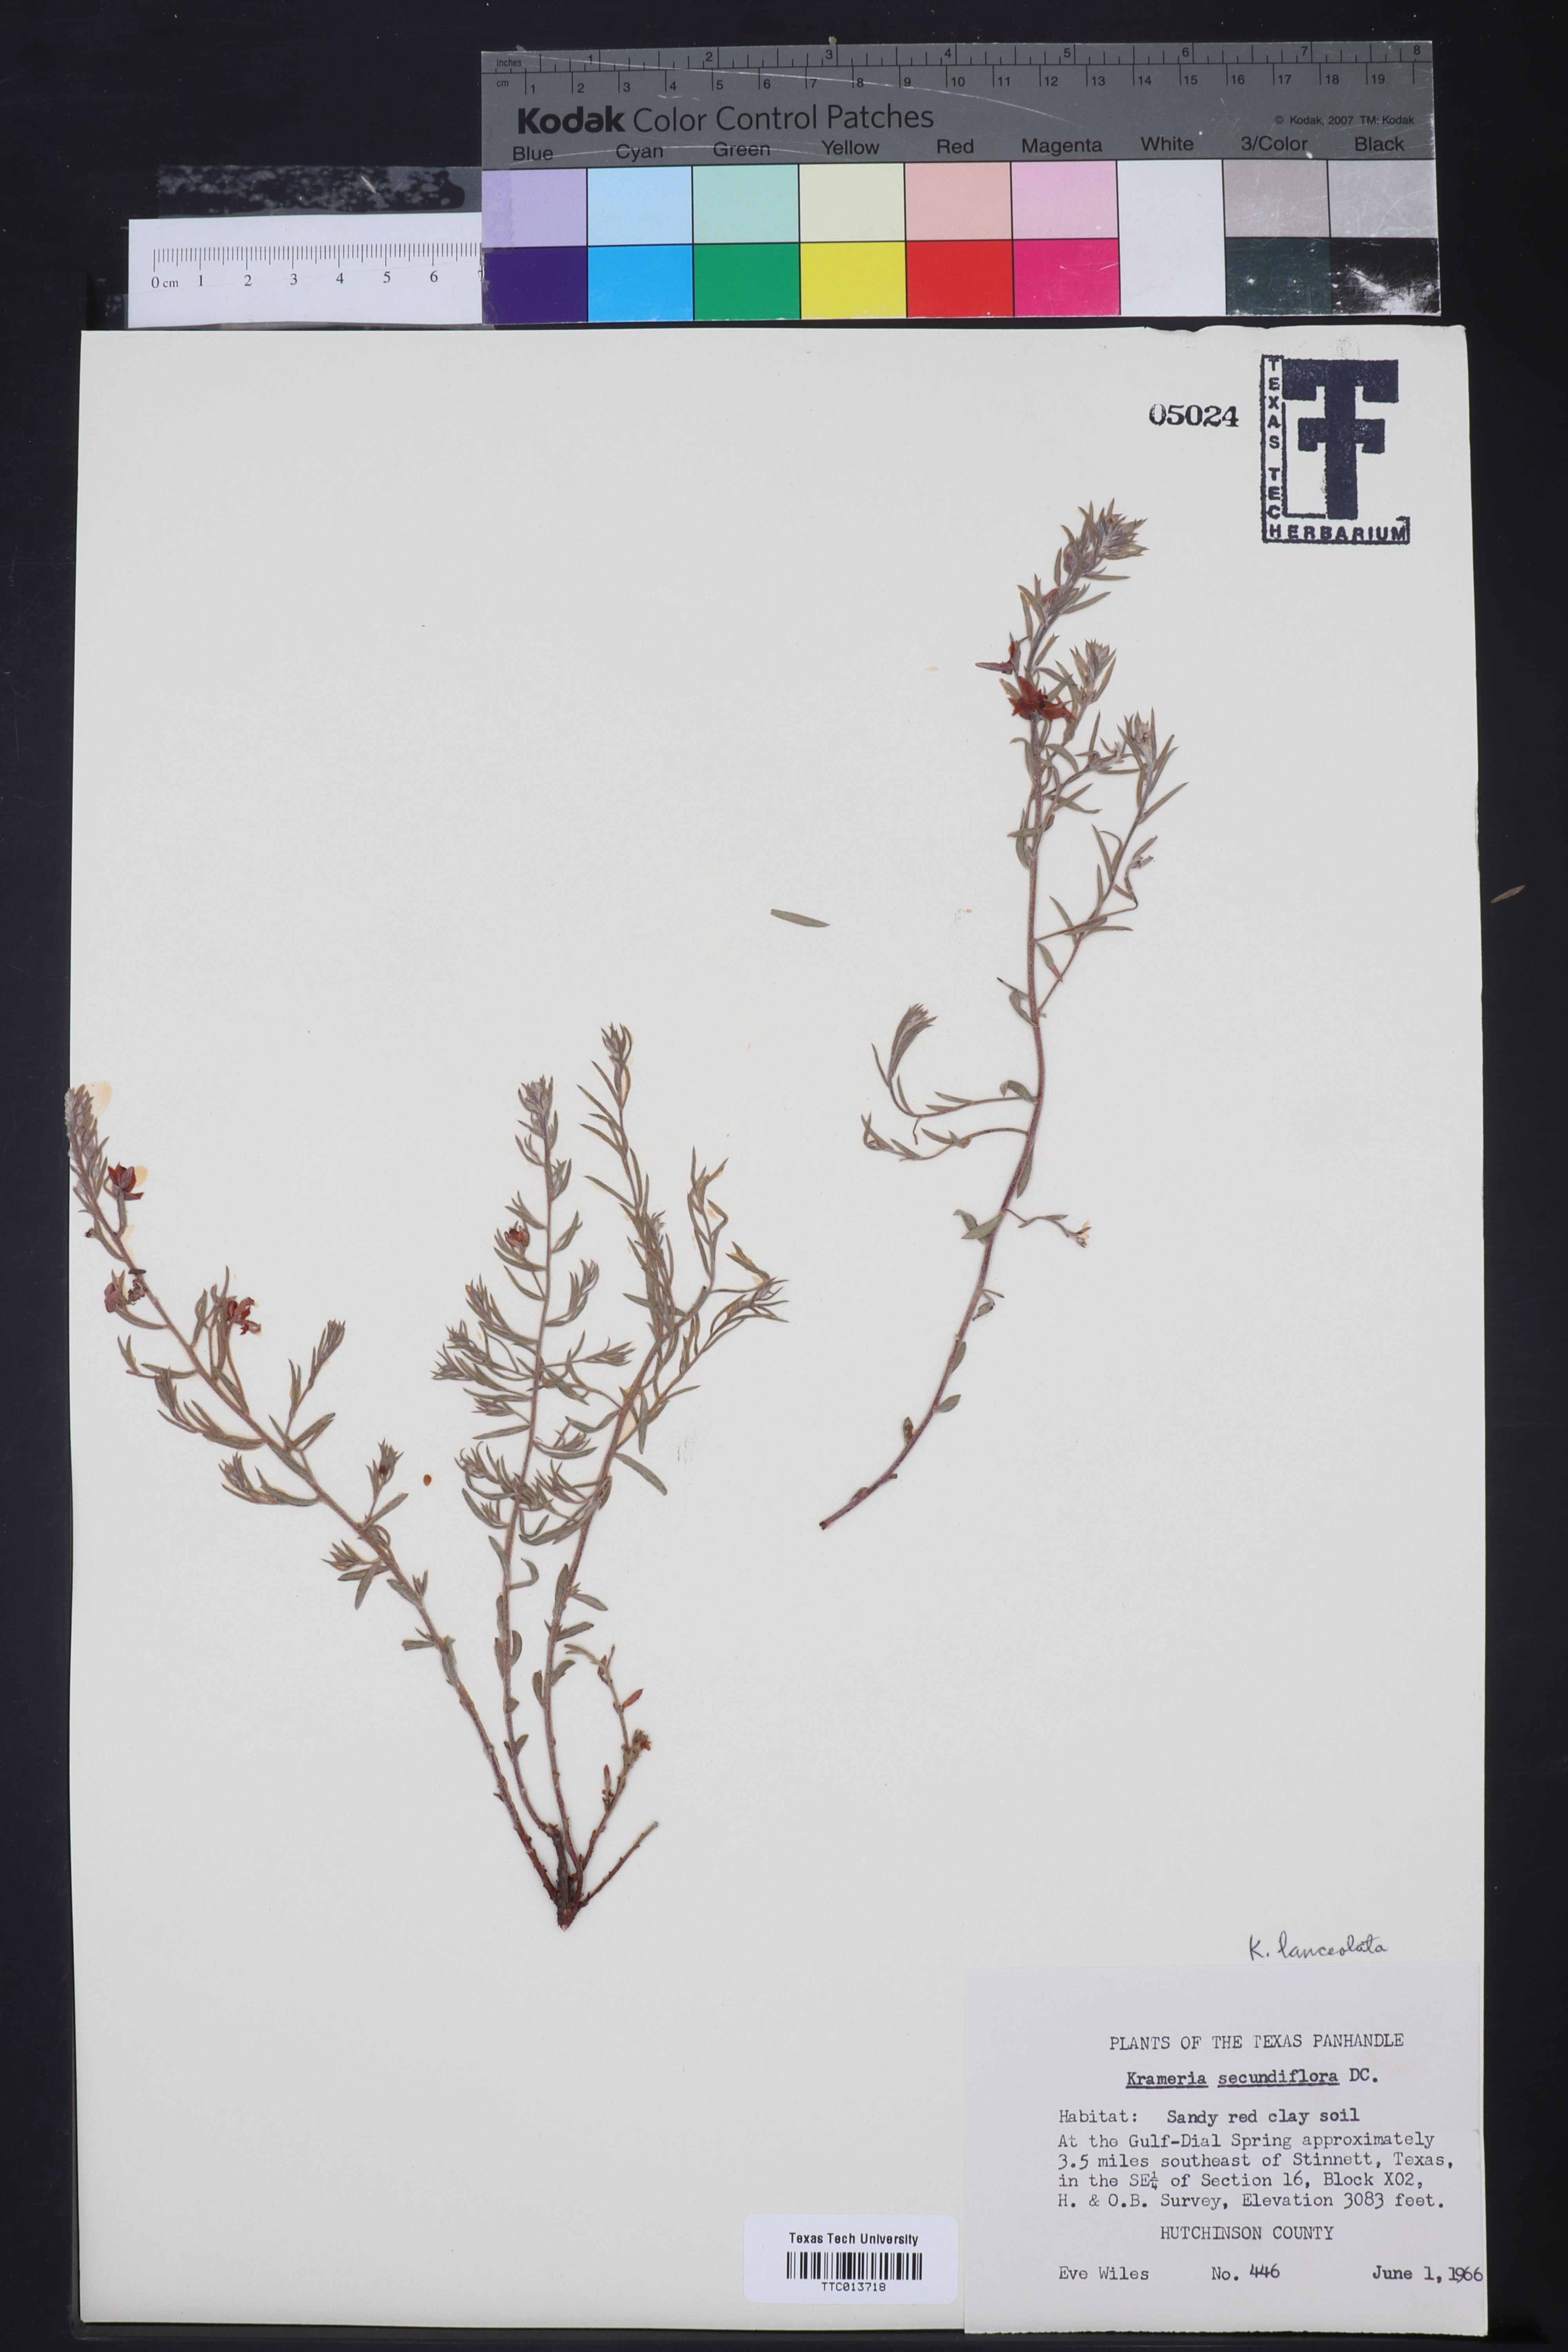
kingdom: Plantae
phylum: Tracheophyta
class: Magnoliopsida
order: Zygophyllales
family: Krameriaceae
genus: Krameria
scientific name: Krameria lanceolata
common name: Ratany
